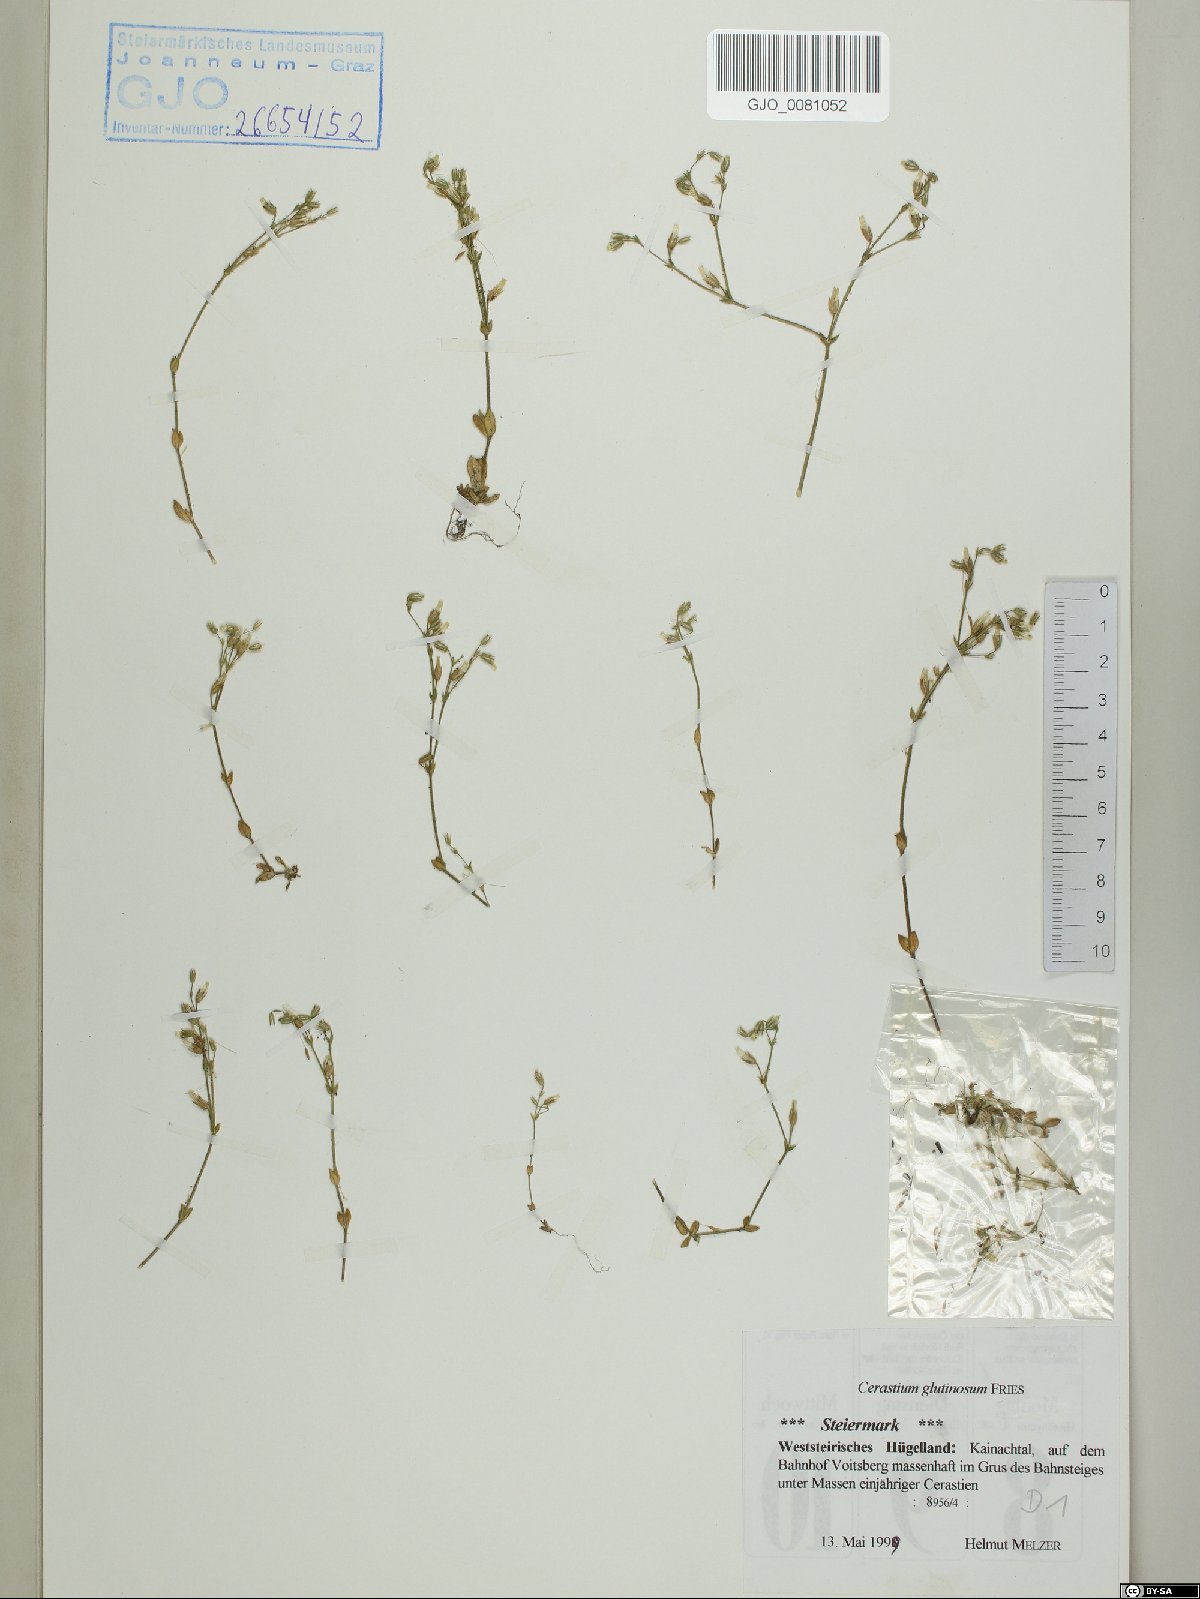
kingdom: Plantae
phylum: Tracheophyta
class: Magnoliopsida
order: Caryophyllales
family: Caryophyllaceae
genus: Cerastium
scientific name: Cerastium glutinosum
